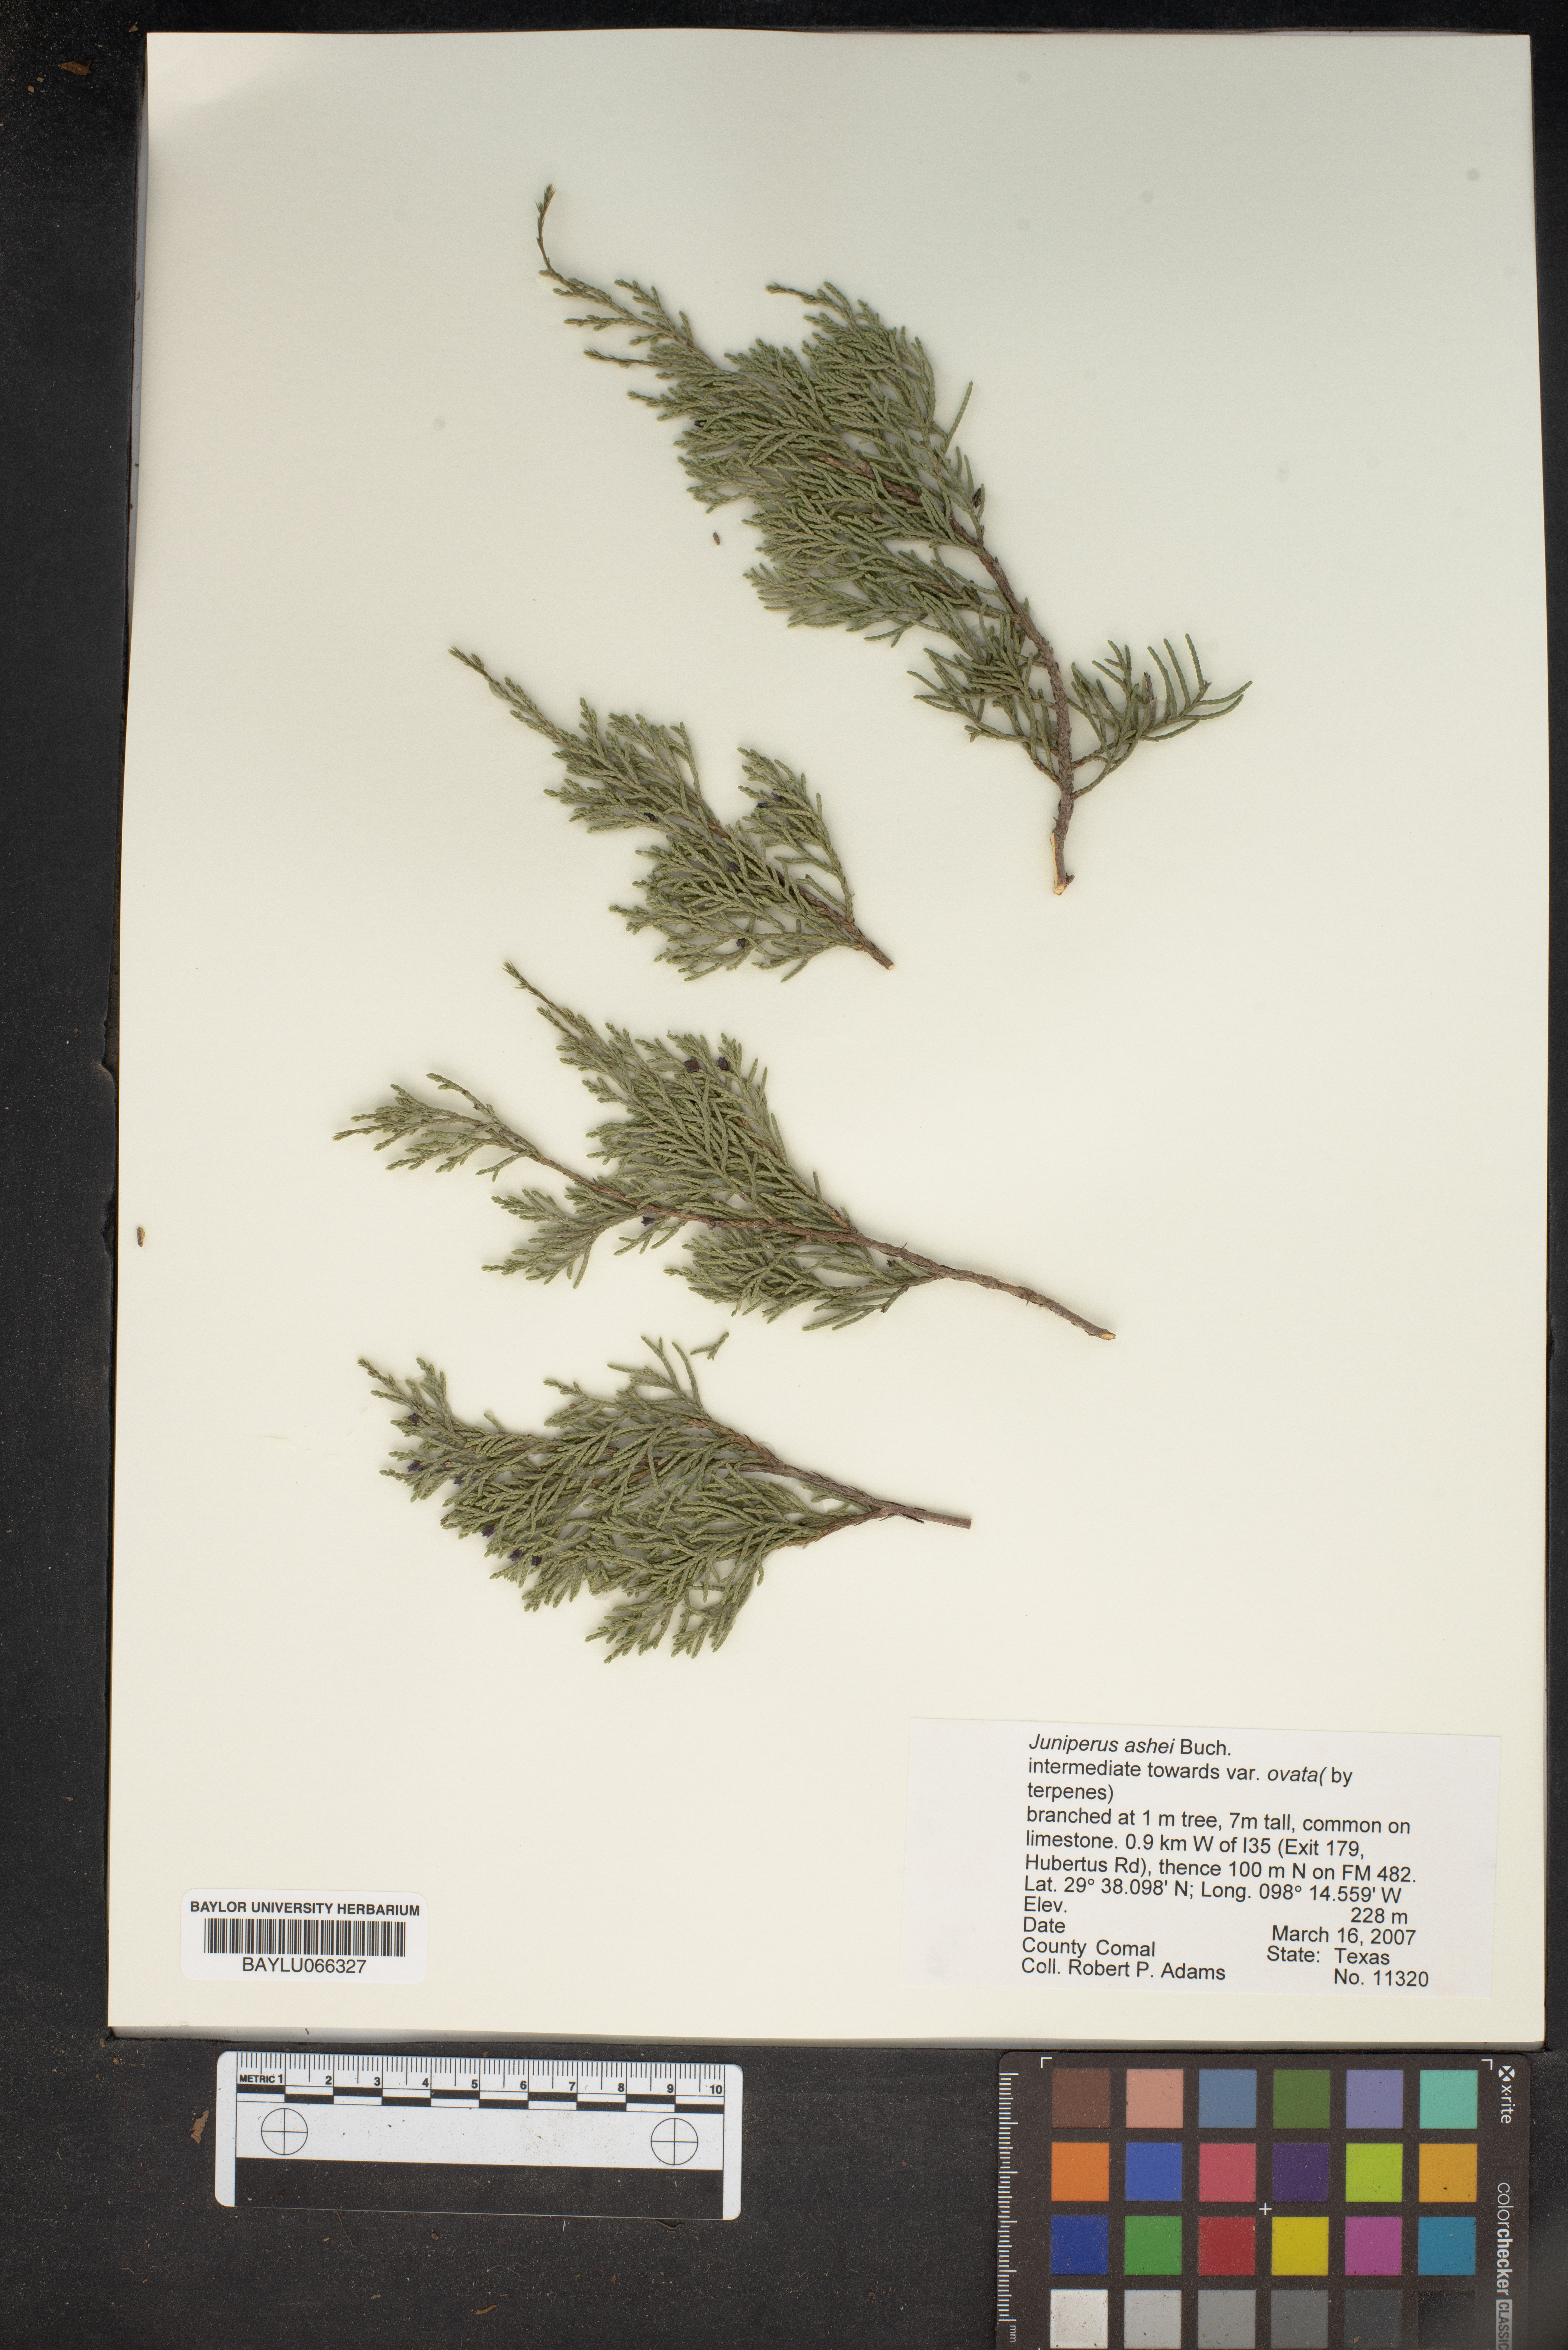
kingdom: Plantae
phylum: Tracheophyta
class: Pinopsida
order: Pinales
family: Cupressaceae
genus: Juniperus
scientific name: Juniperus ashei
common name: Mexican juniper
